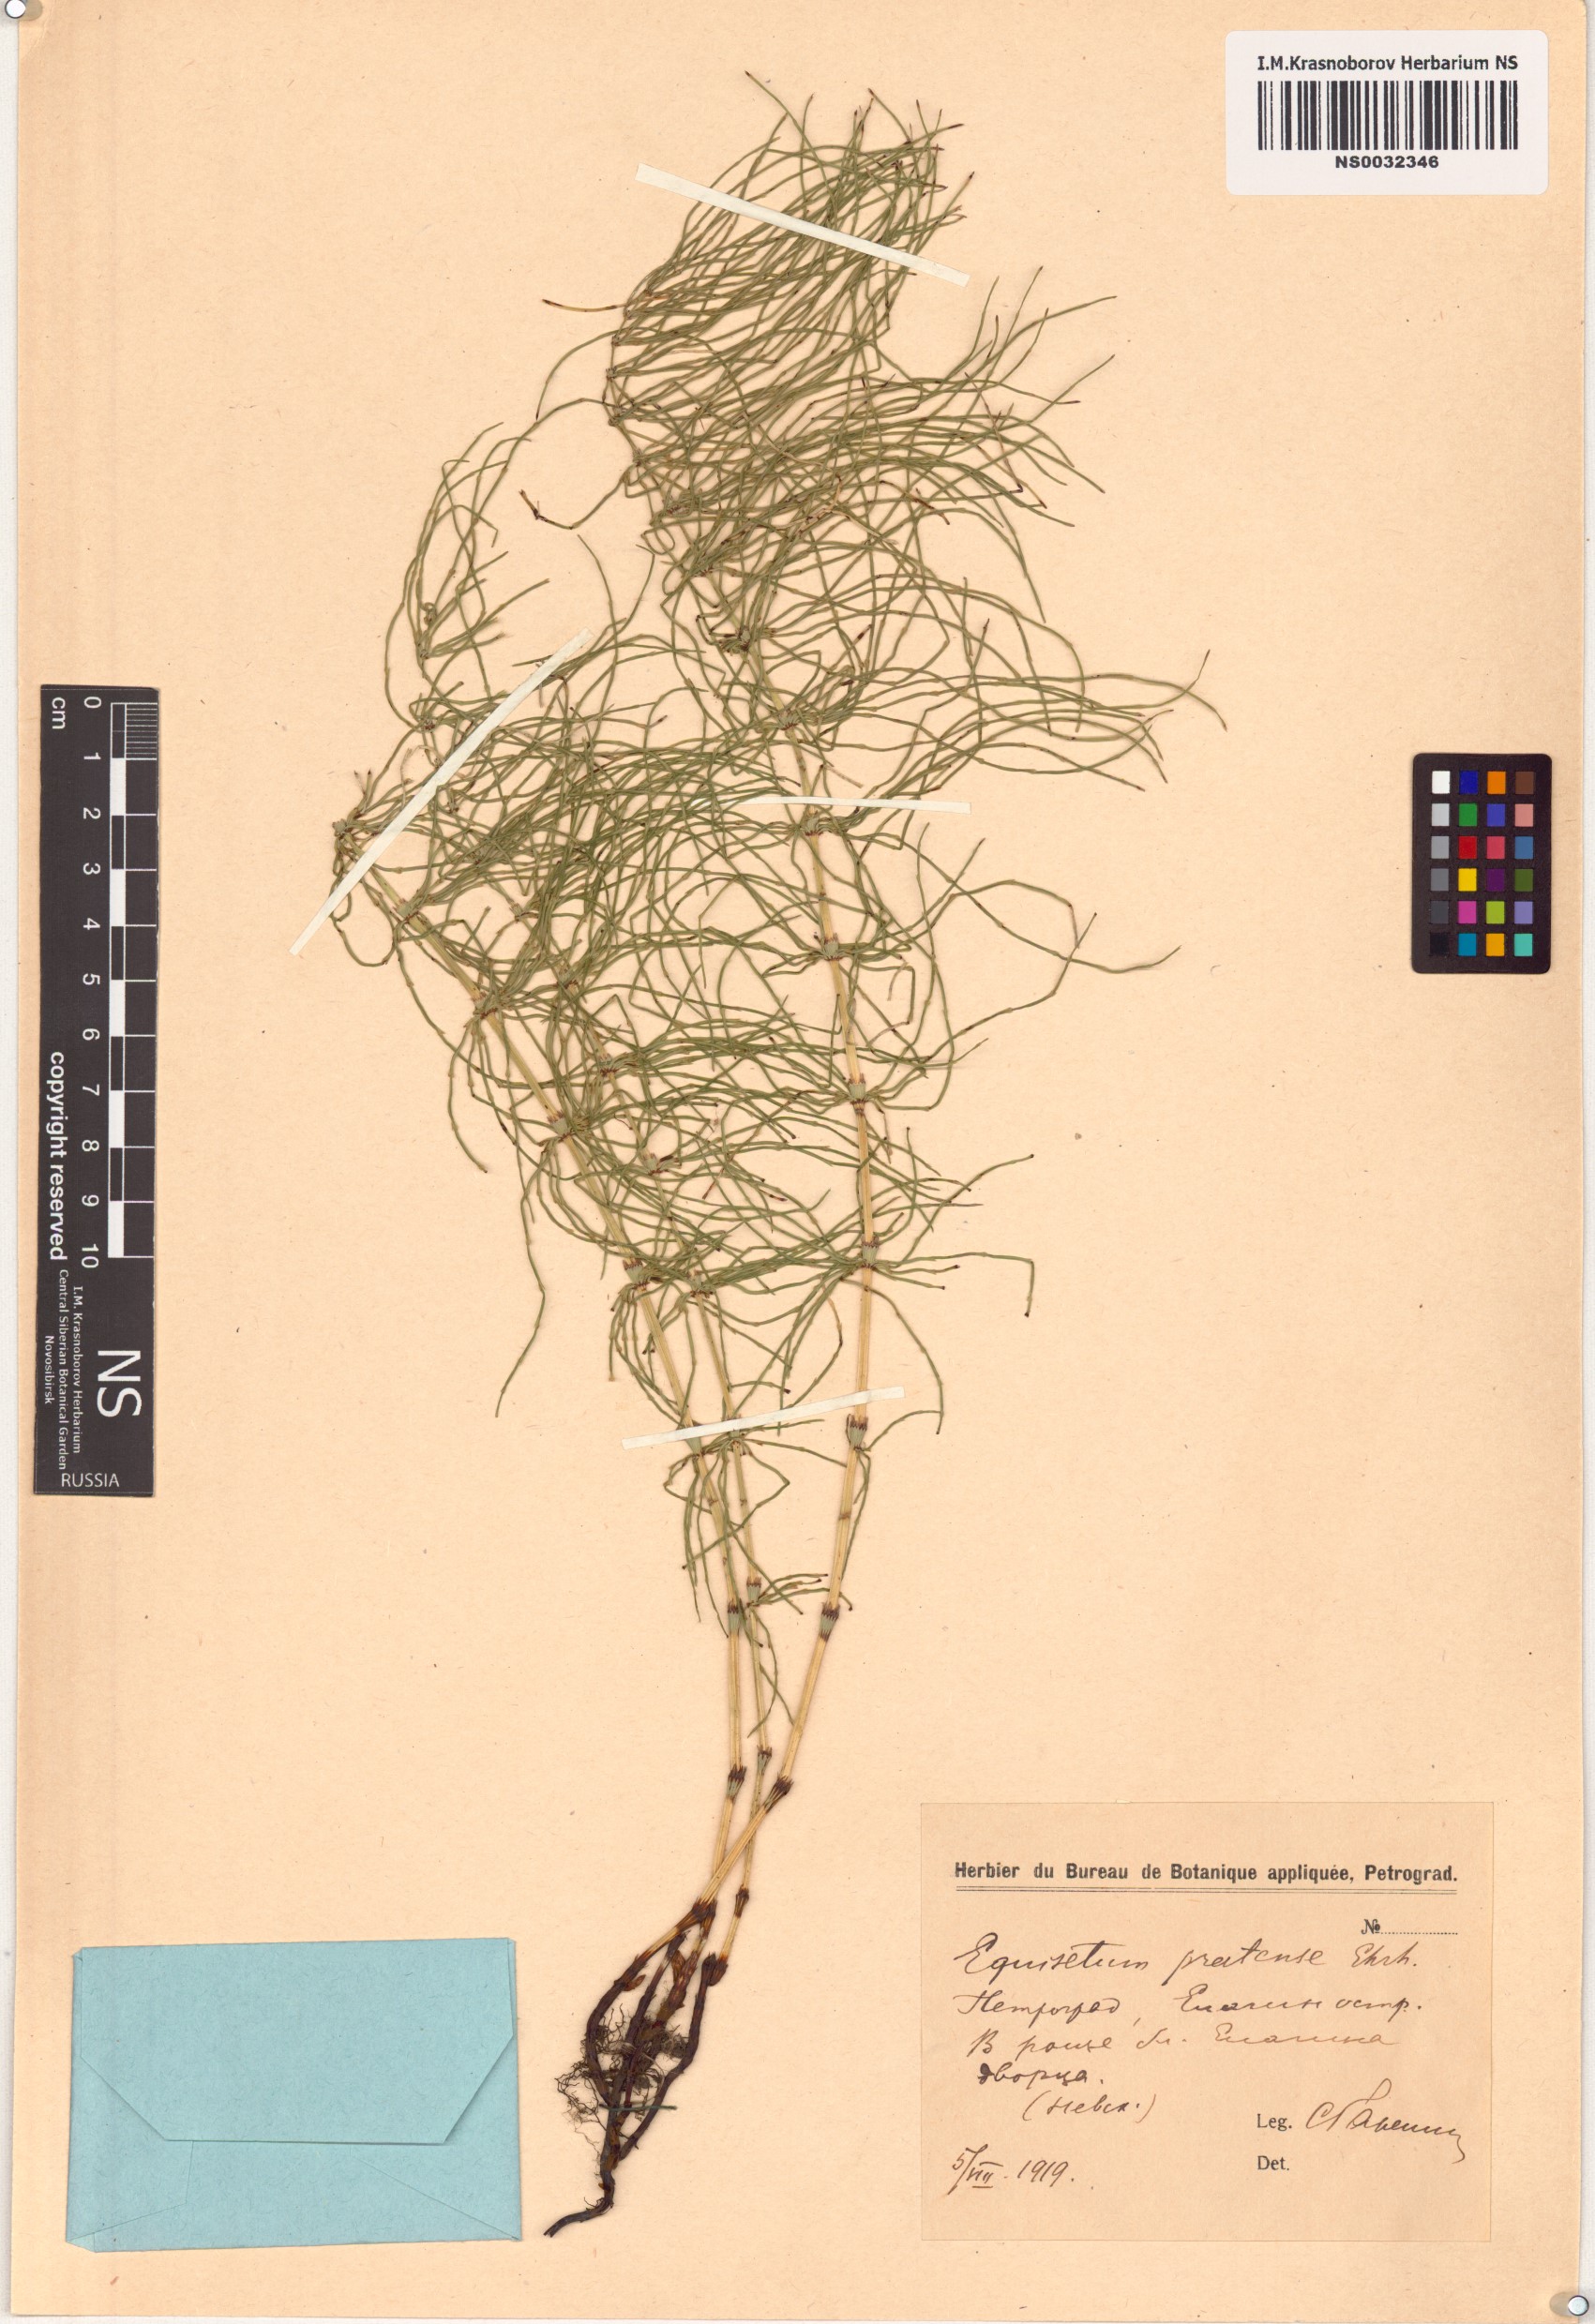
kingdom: Plantae
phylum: Tracheophyta
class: Polypodiopsida
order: Equisetales
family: Equisetaceae
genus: Equisetum
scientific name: Equisetum pratense
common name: Meadow horsetail
